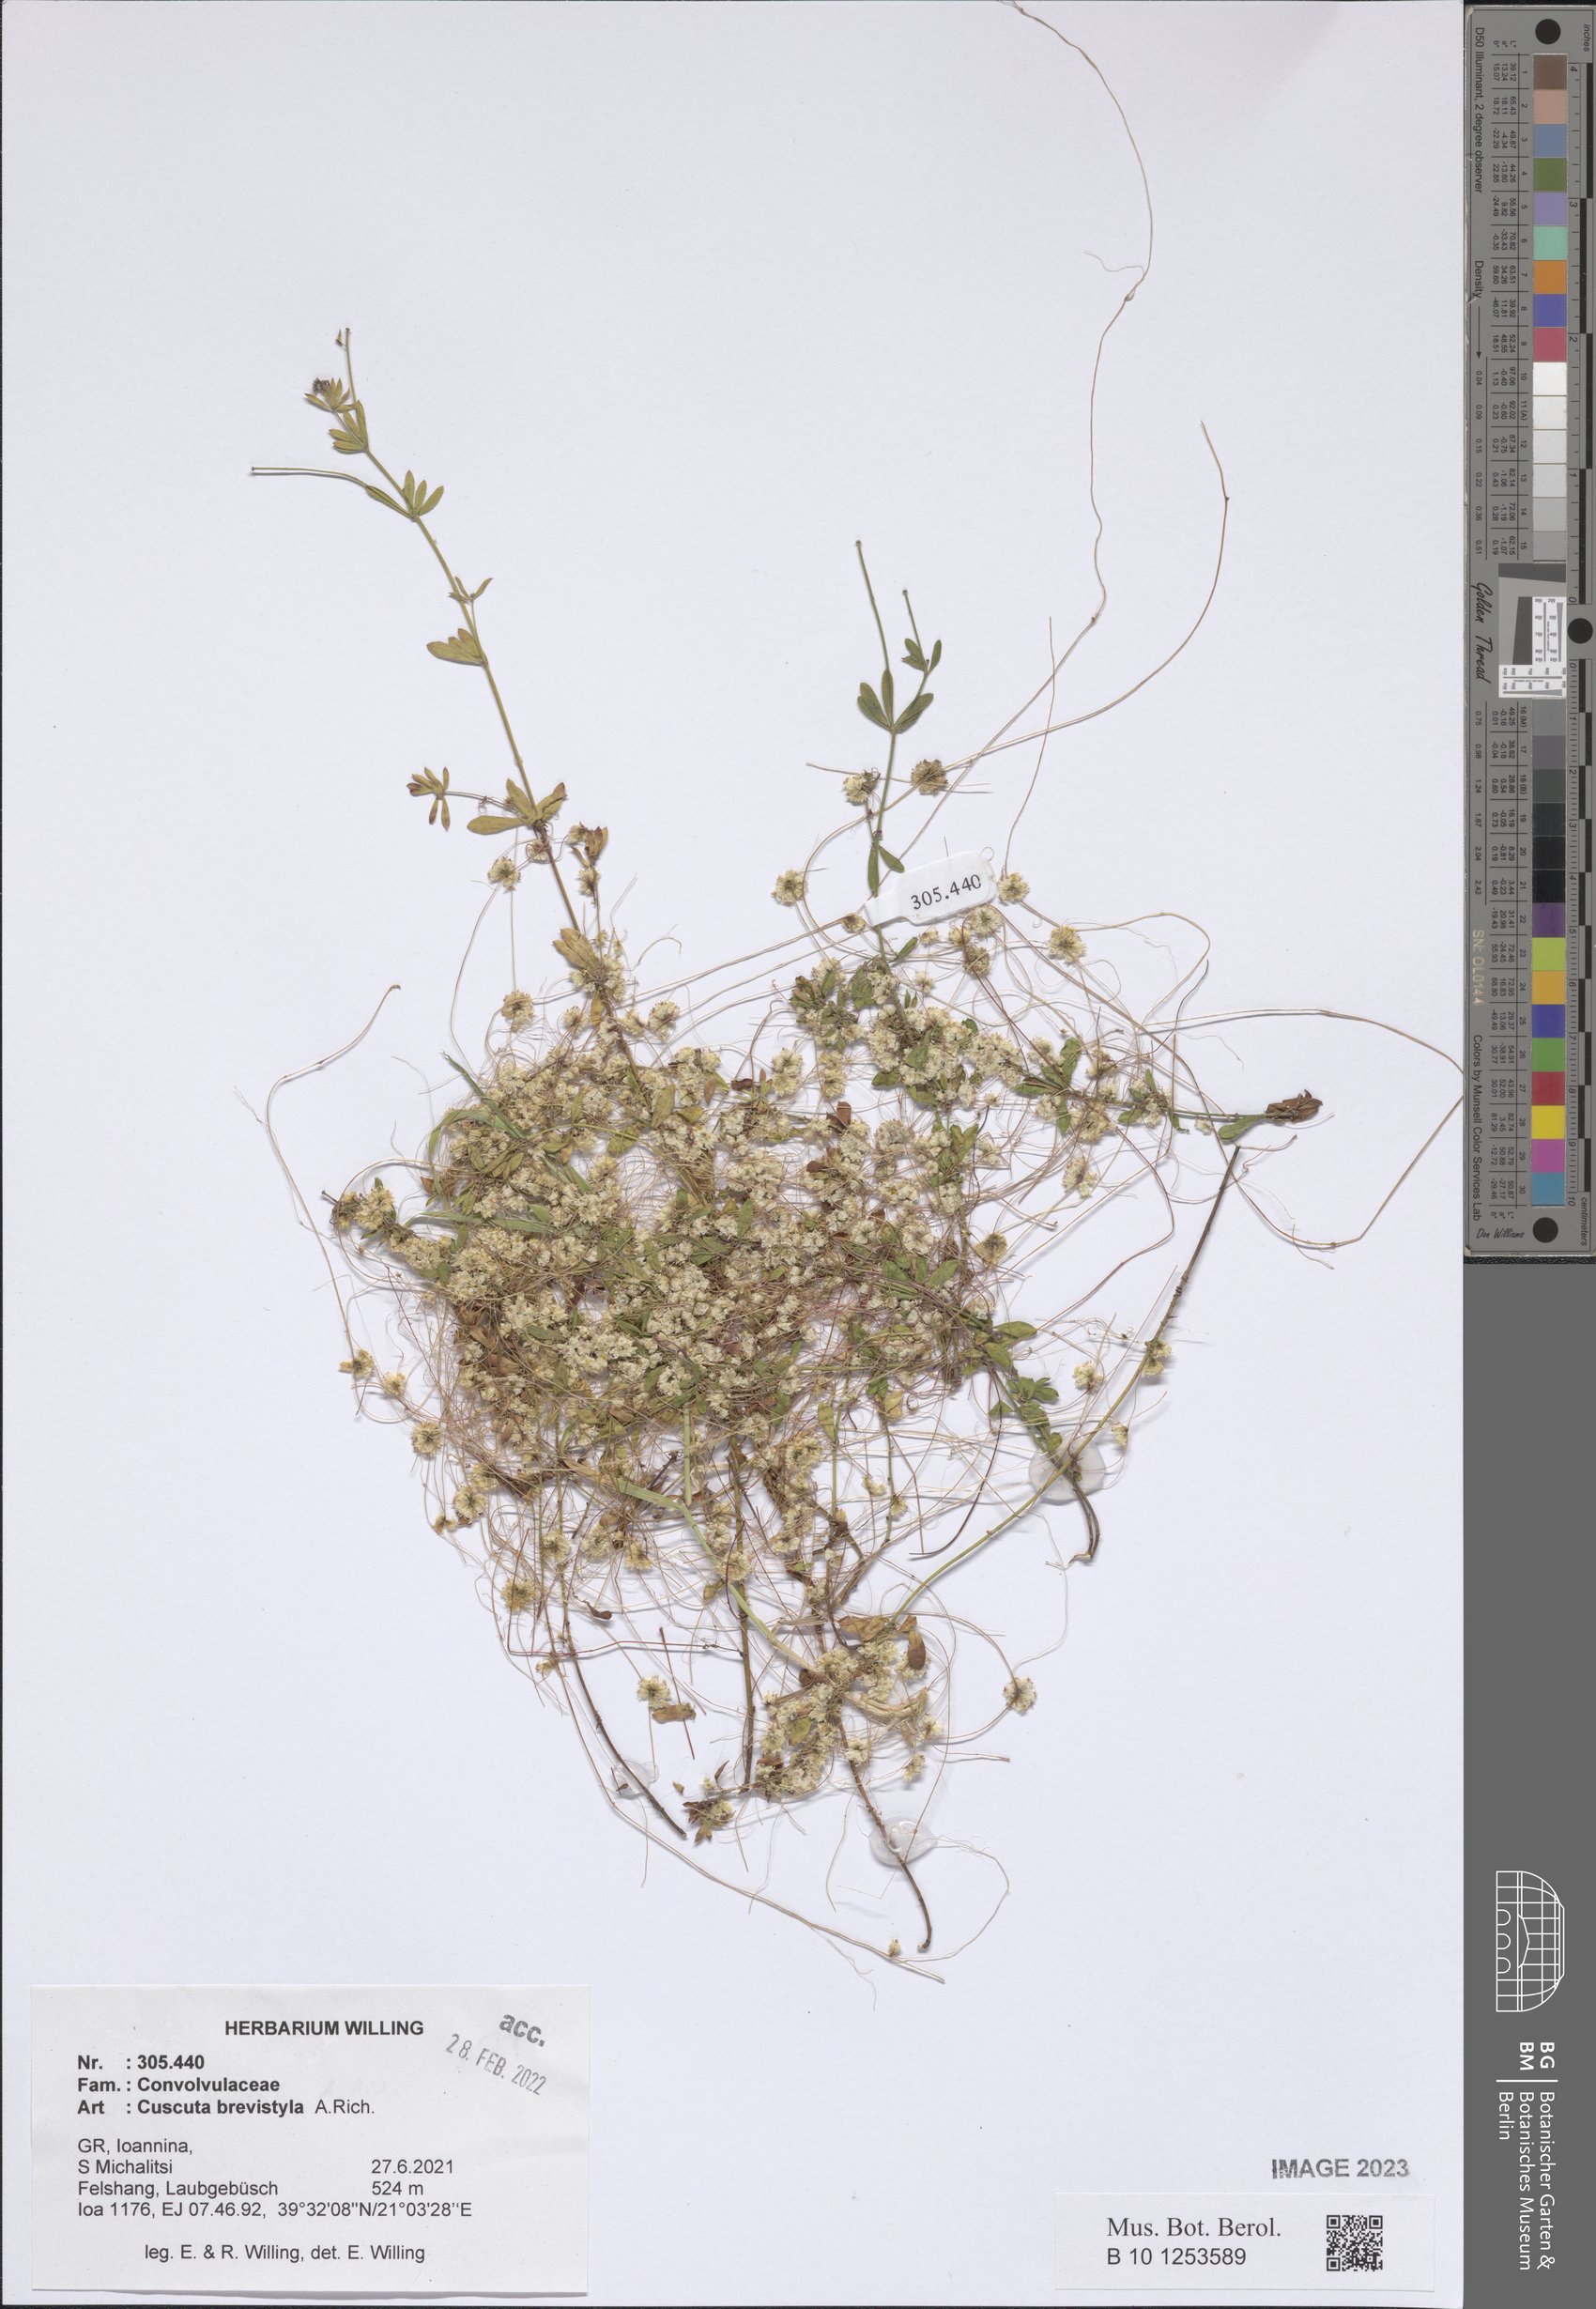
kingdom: Plantae
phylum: Tracheophyta
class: Magnoliopsida
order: Solanales
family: Convolvulaceae
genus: Cuscuta
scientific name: Cuscuta brevistyla
